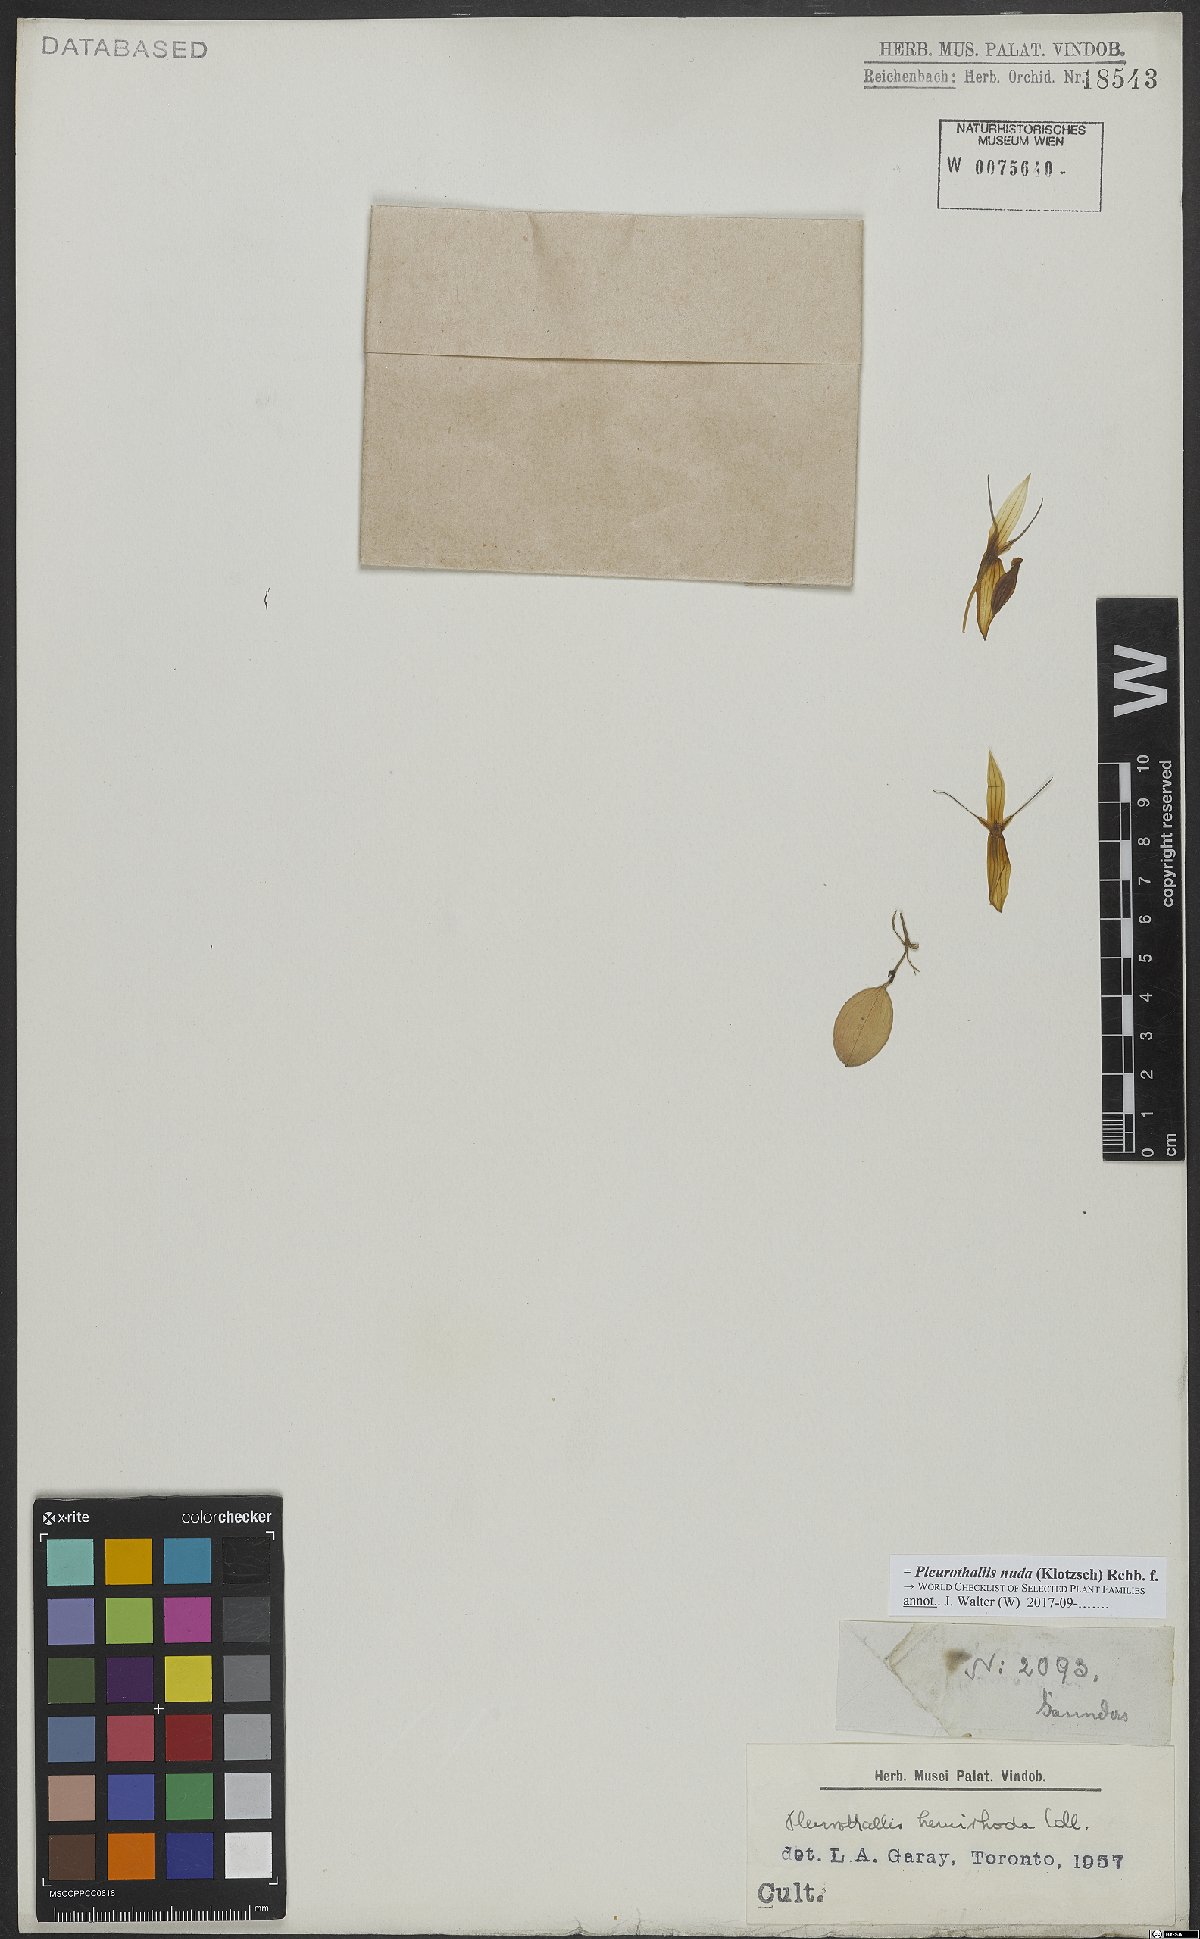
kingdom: Plantae
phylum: Tracheophyta
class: Liliopsida
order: Asparagales
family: Orchidaceae
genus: Pleurothallis
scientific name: Pleurothallis nuda
